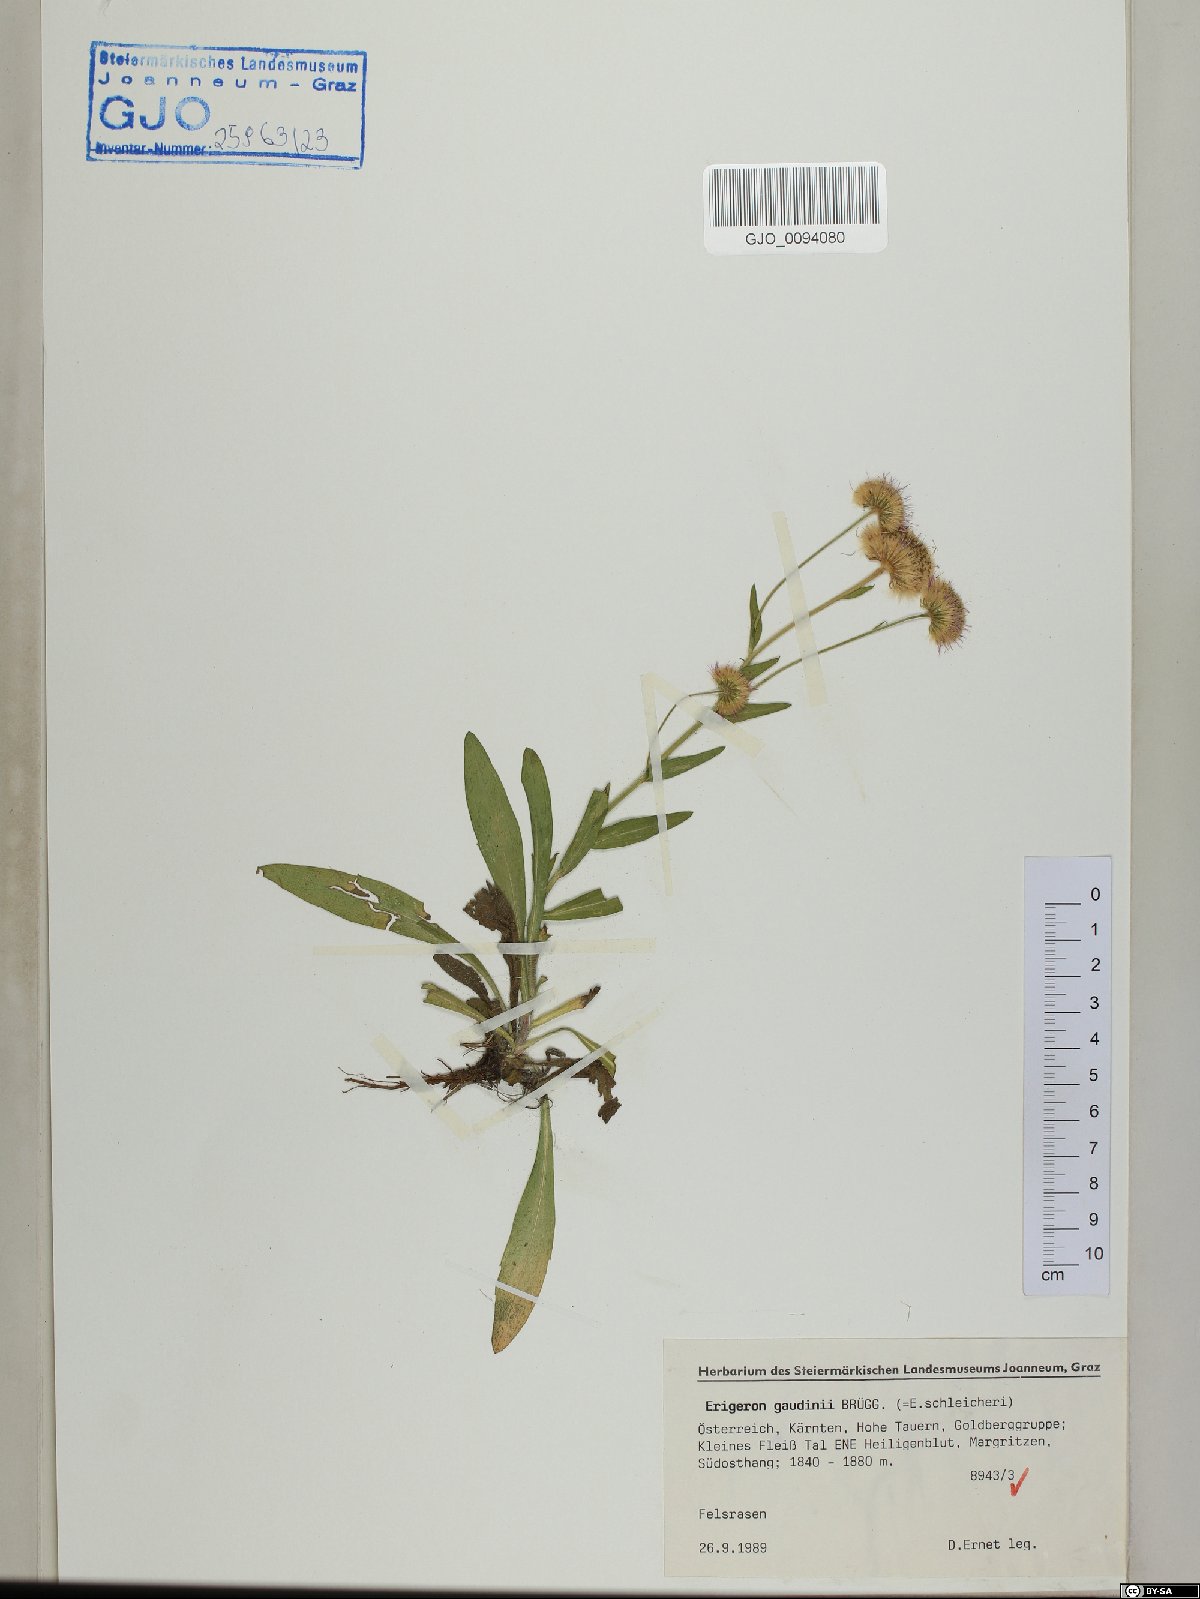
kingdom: Plantae
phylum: Tracheophyta
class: Magnoliopsida
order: Asterales
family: Asteraceae
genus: Erigeron
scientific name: Erigeron schleicheri
